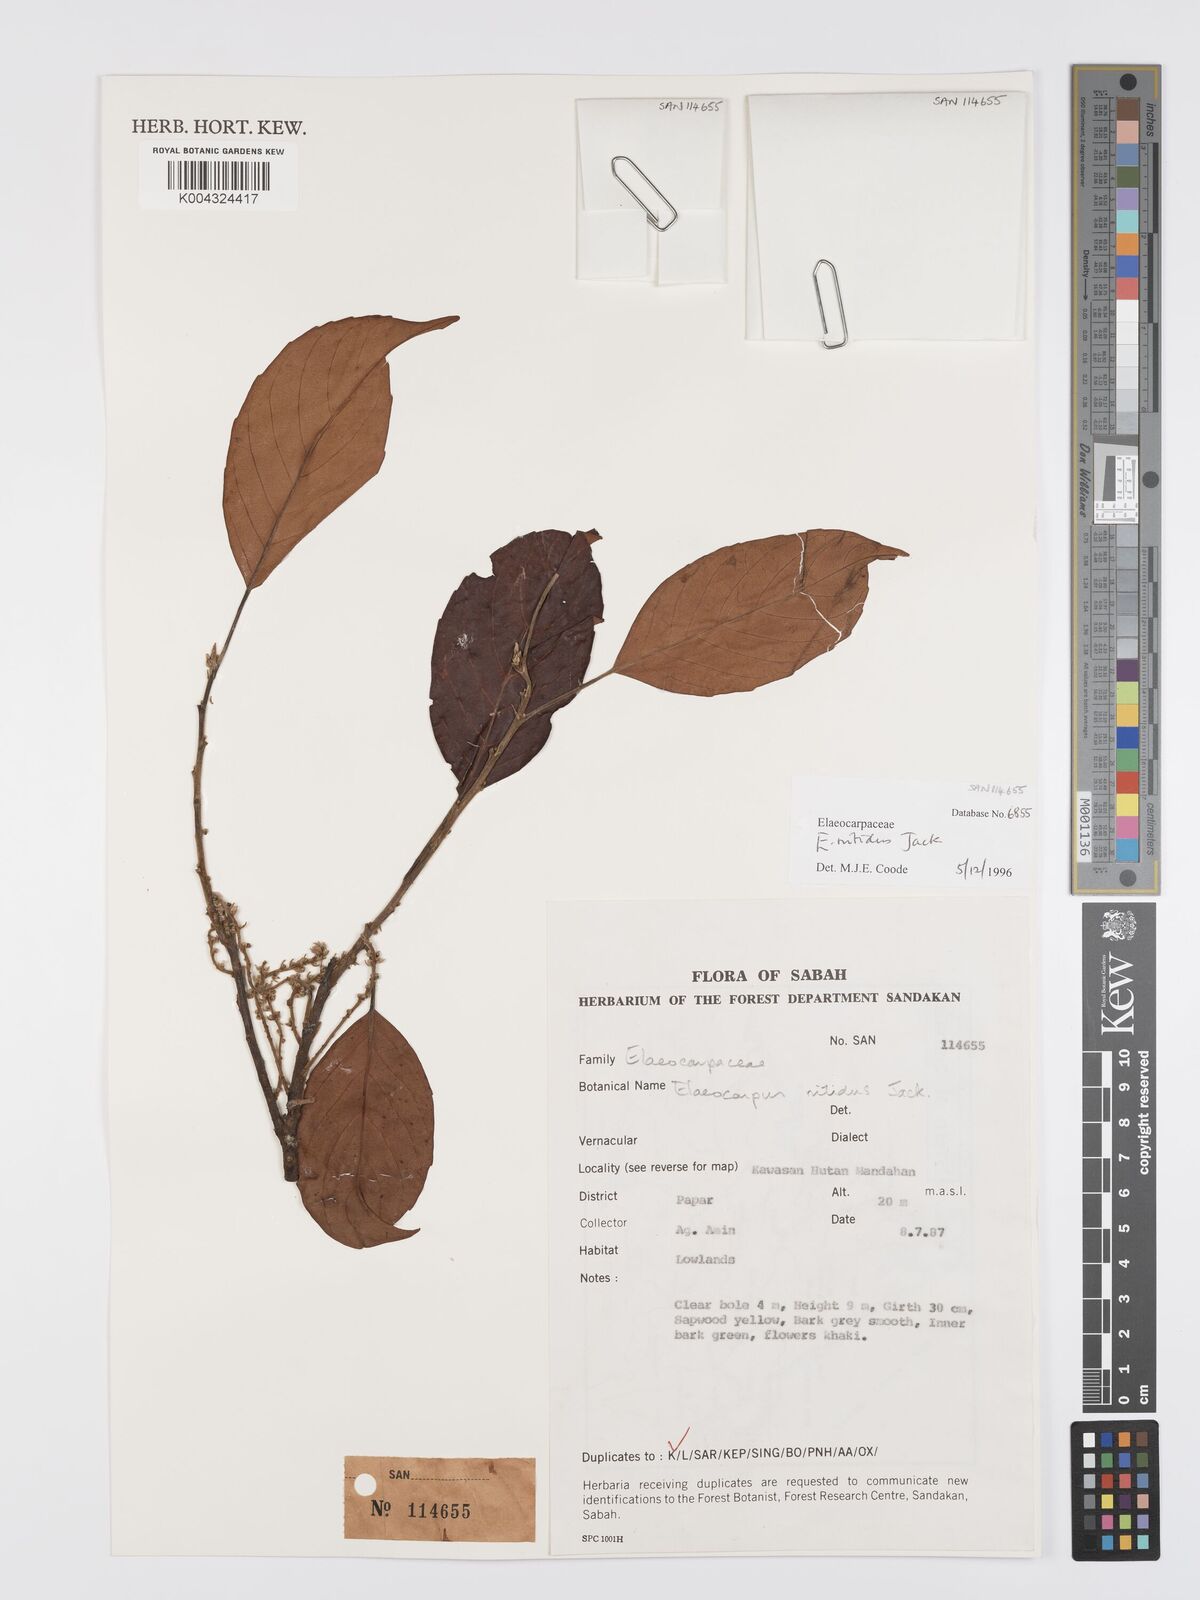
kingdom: Plantae
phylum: Tracheophyta
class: Magnoliopsida
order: Oxalidales
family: Elaeocarpaceae
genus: Elaeocarpus
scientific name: Elaeocarpus nitidus
